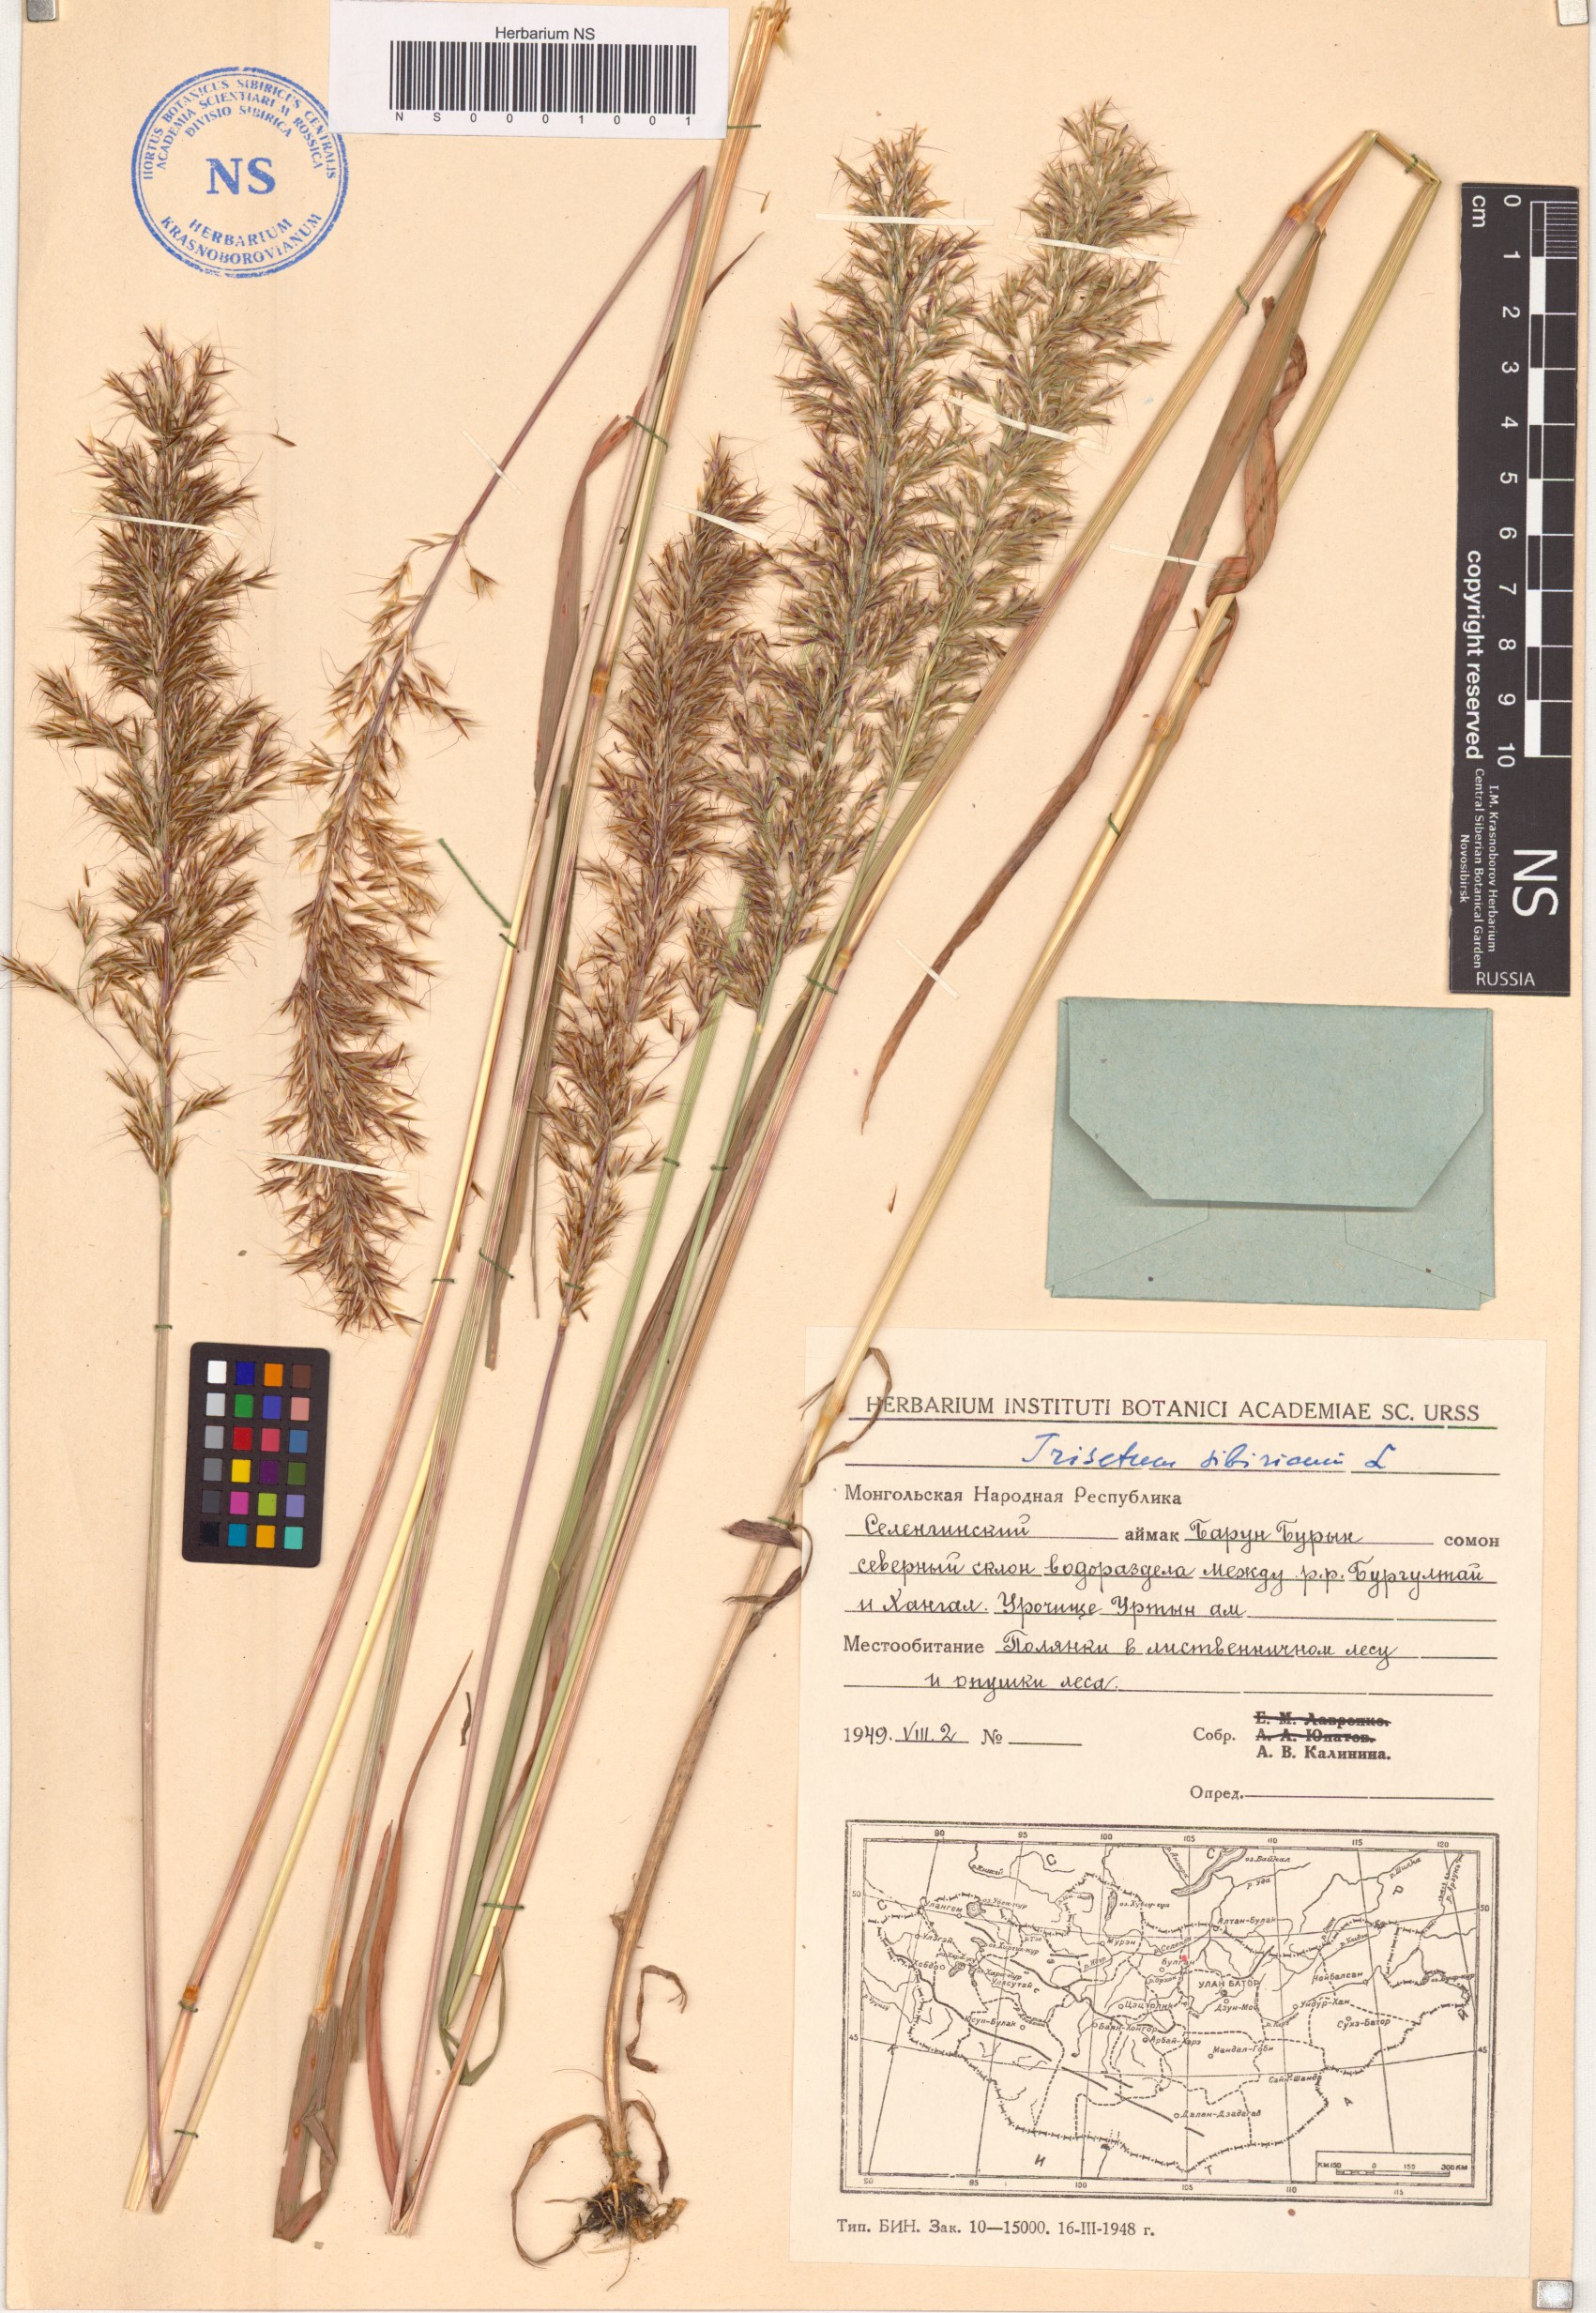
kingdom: Plantae
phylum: Tracheophyta
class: Liliopsida
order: Poales
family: Poaceae
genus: Sibirotrisetum
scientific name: Sibirotrisetum sibiricum
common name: Siberian false oat
